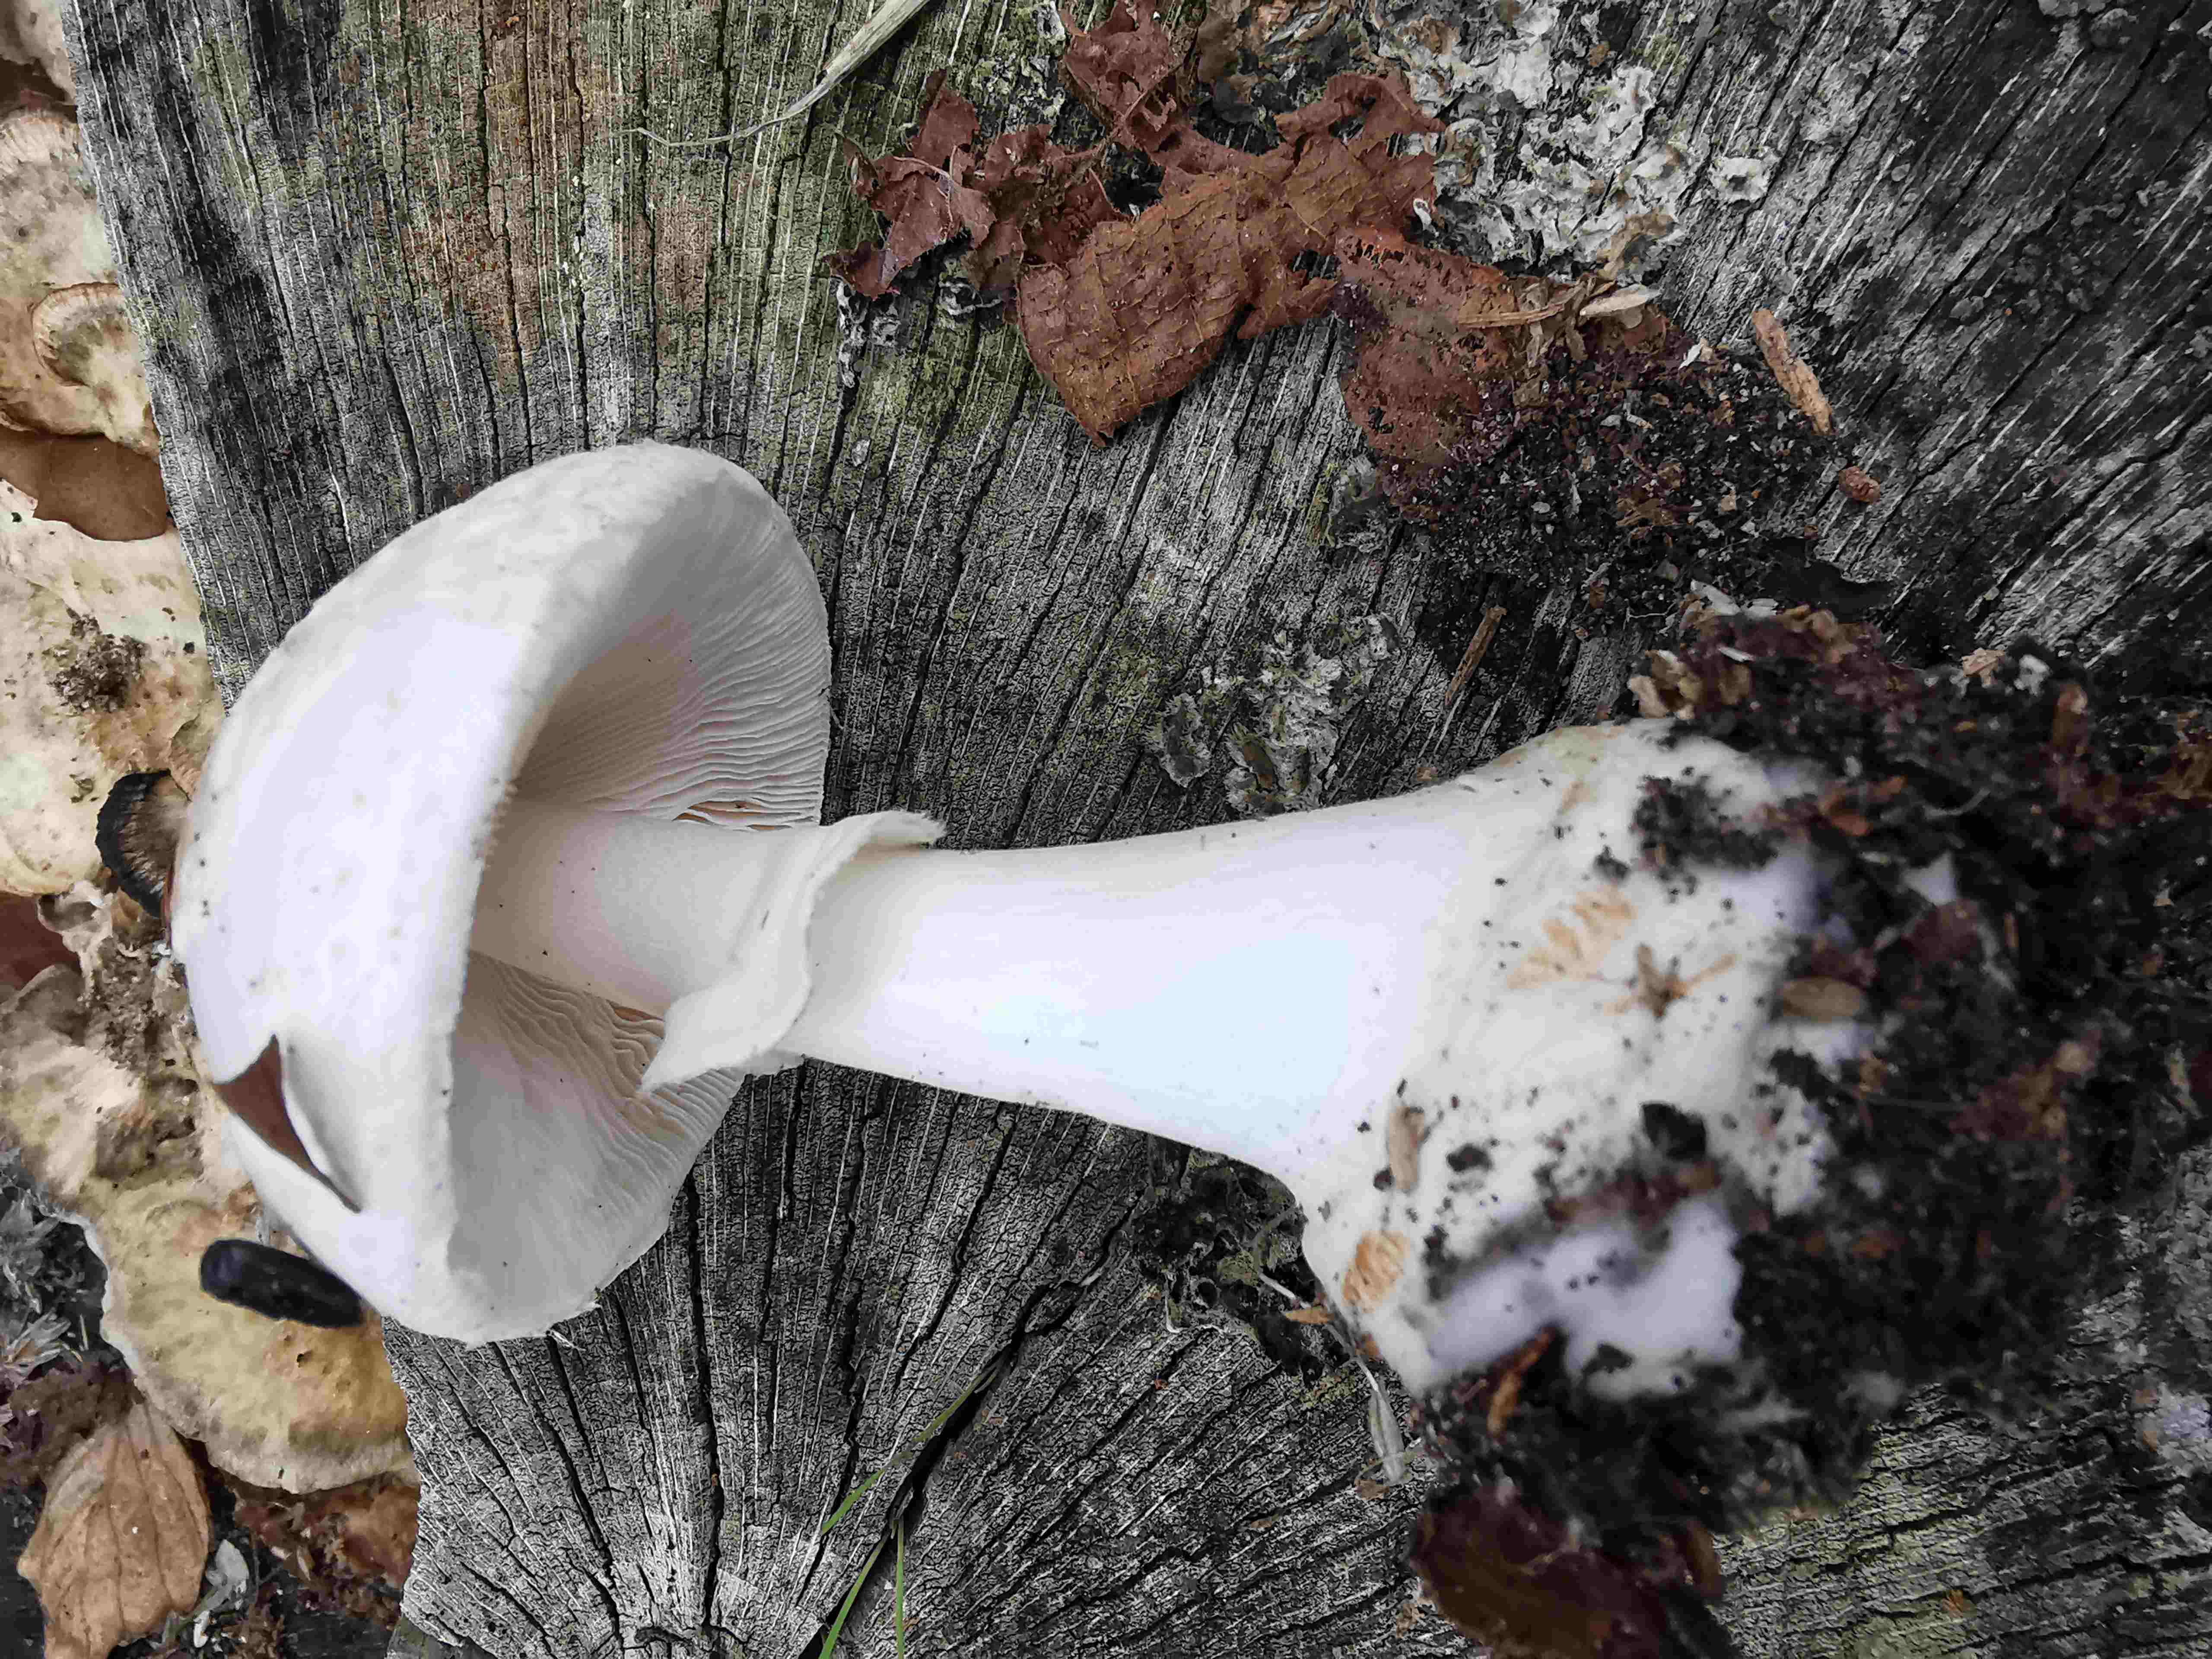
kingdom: Fungi
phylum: Basidiomycota
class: Agaricomycetes
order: Agaricales
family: Amanitaceae
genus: Amanita
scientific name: Amanita citrina
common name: False death-cap
